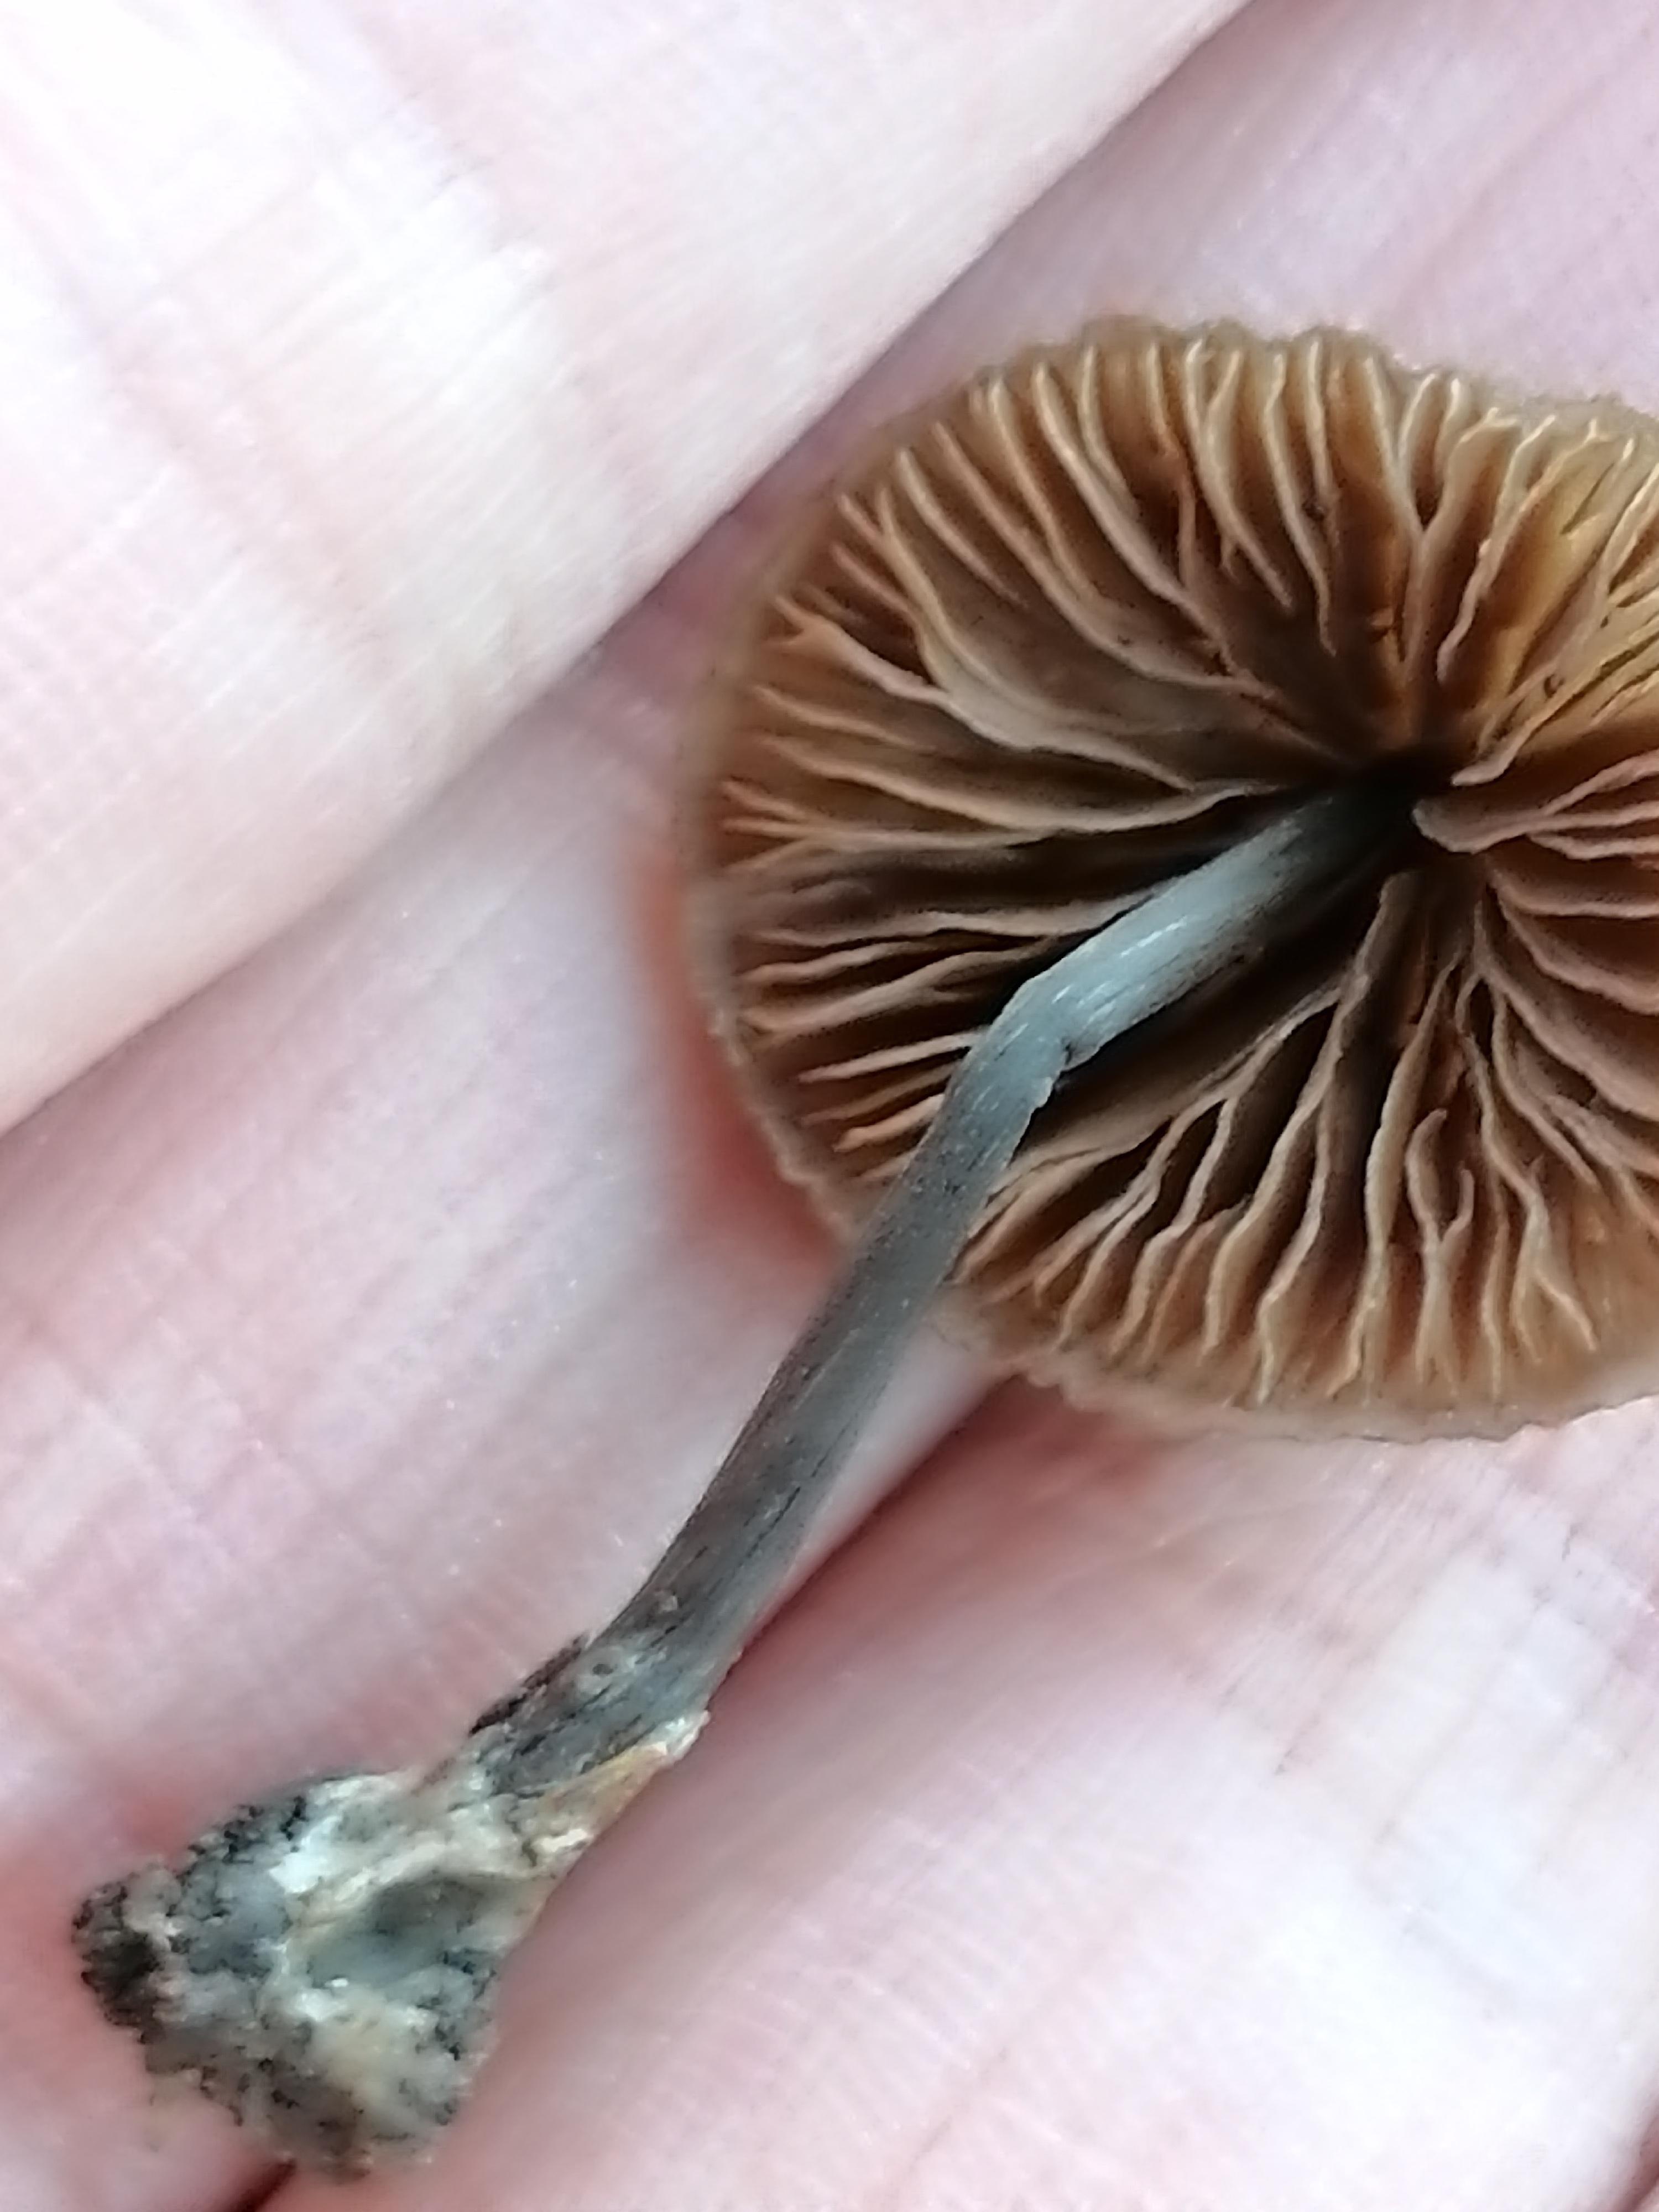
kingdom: Fungi
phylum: Basidiomycota
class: Agaricomycetes
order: Agaricales
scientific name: Agaricales
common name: champignonordenen
